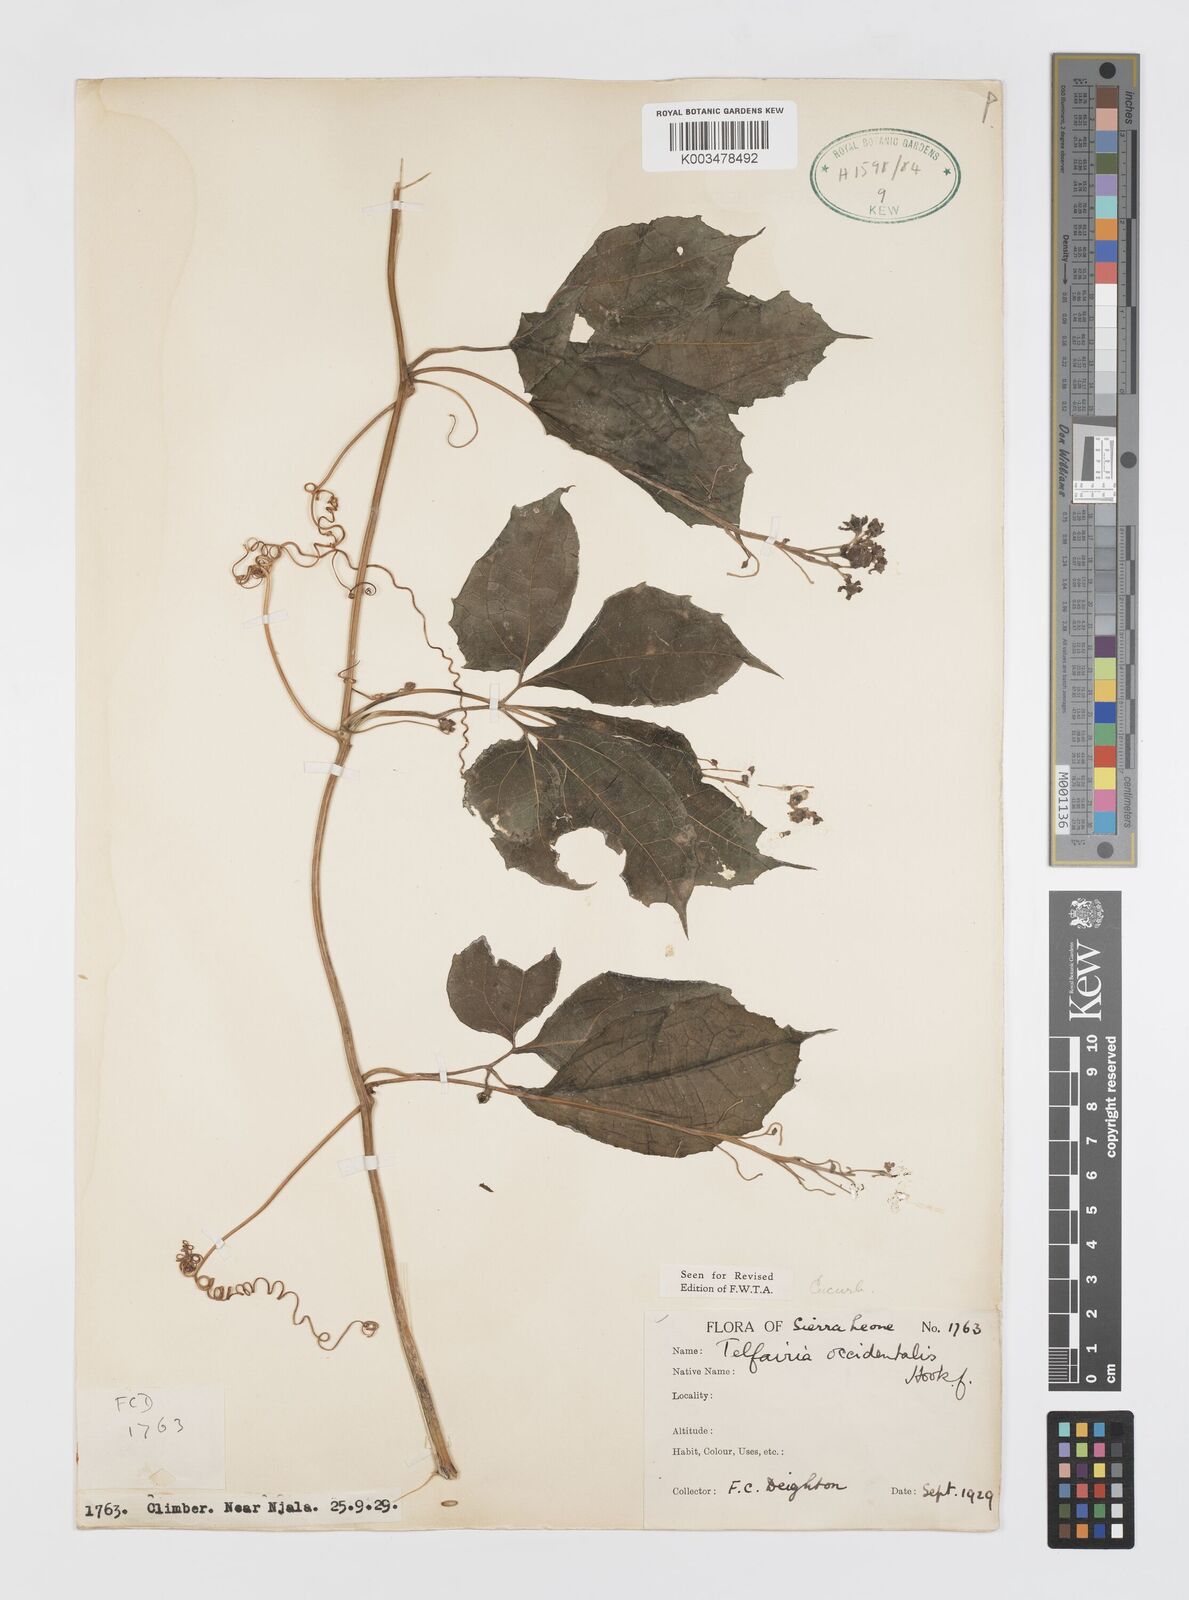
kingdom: Plantae
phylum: Tracheophyta
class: Magnoliopsida
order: Cucurbitales
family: Cucurbitaceae
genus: Telfairia
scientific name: Telfairia occidentalis
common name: Oysternut
